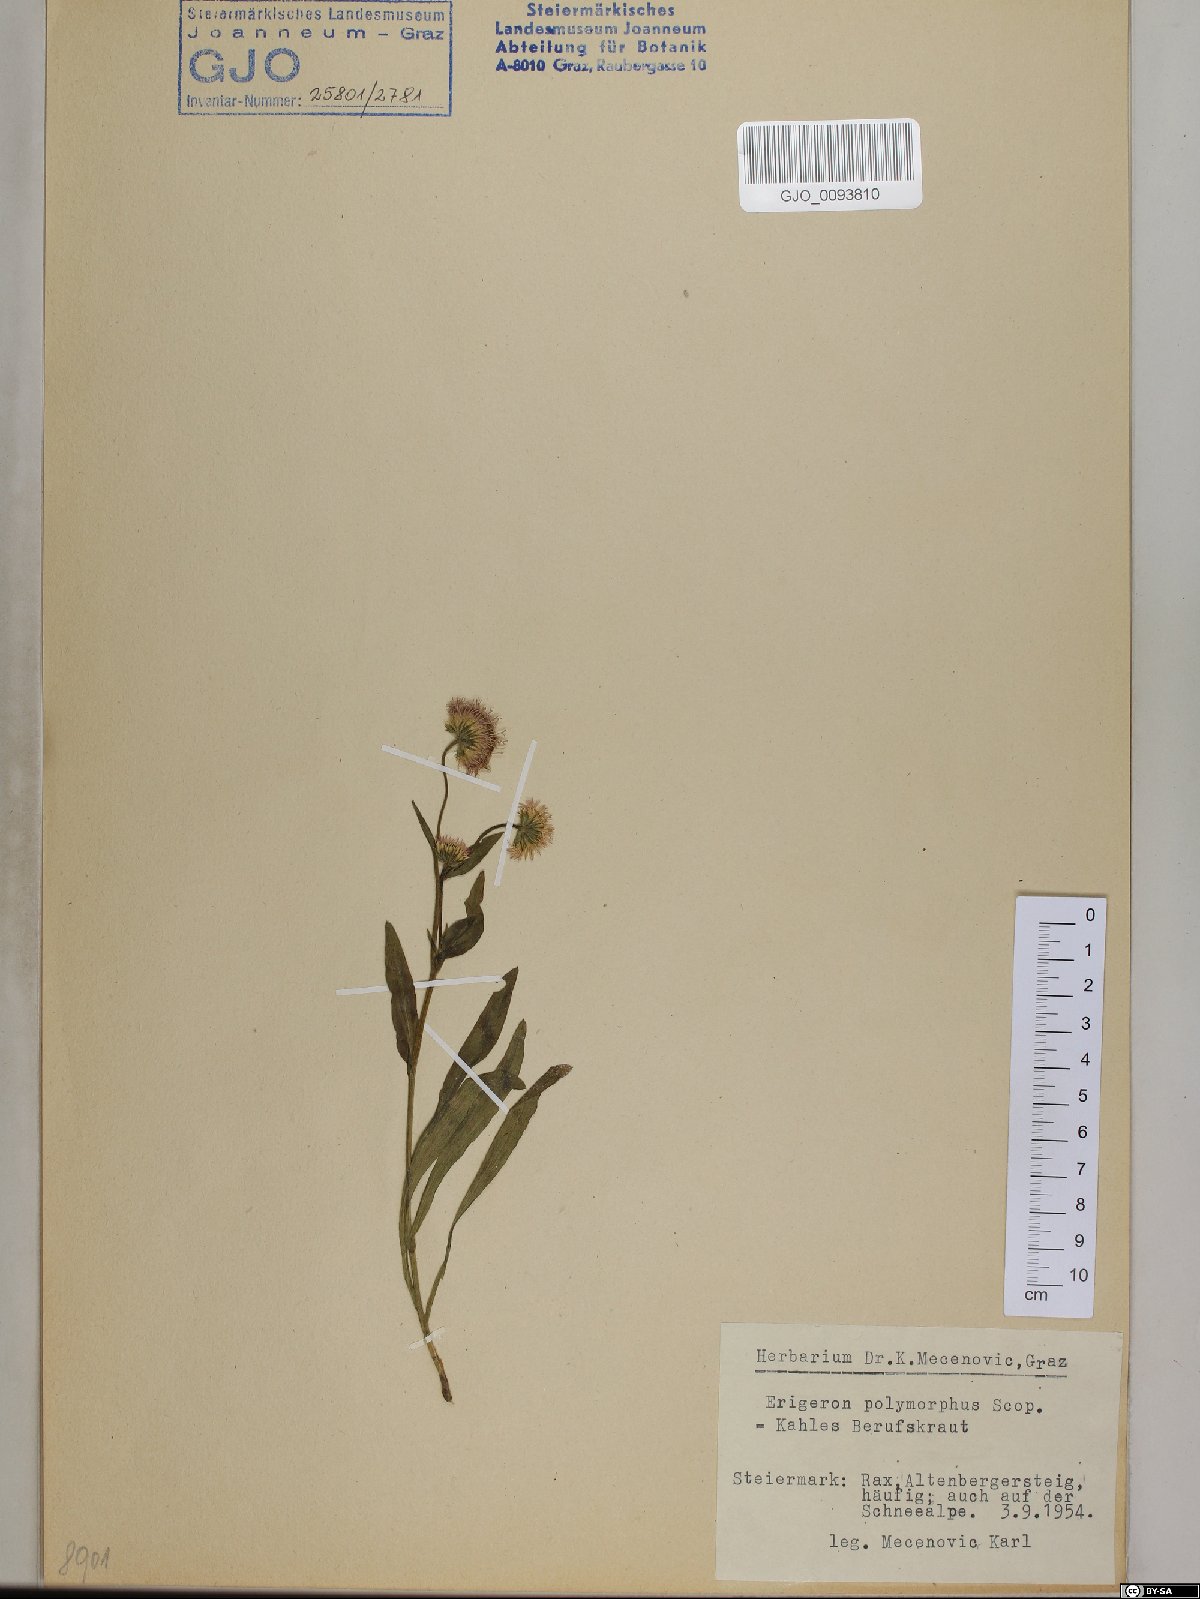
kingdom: Plantae
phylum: Tracheophyta
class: Magnoliopsida
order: Asterales
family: Asteraceae
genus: Erigeron
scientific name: Erigeron alpinus
